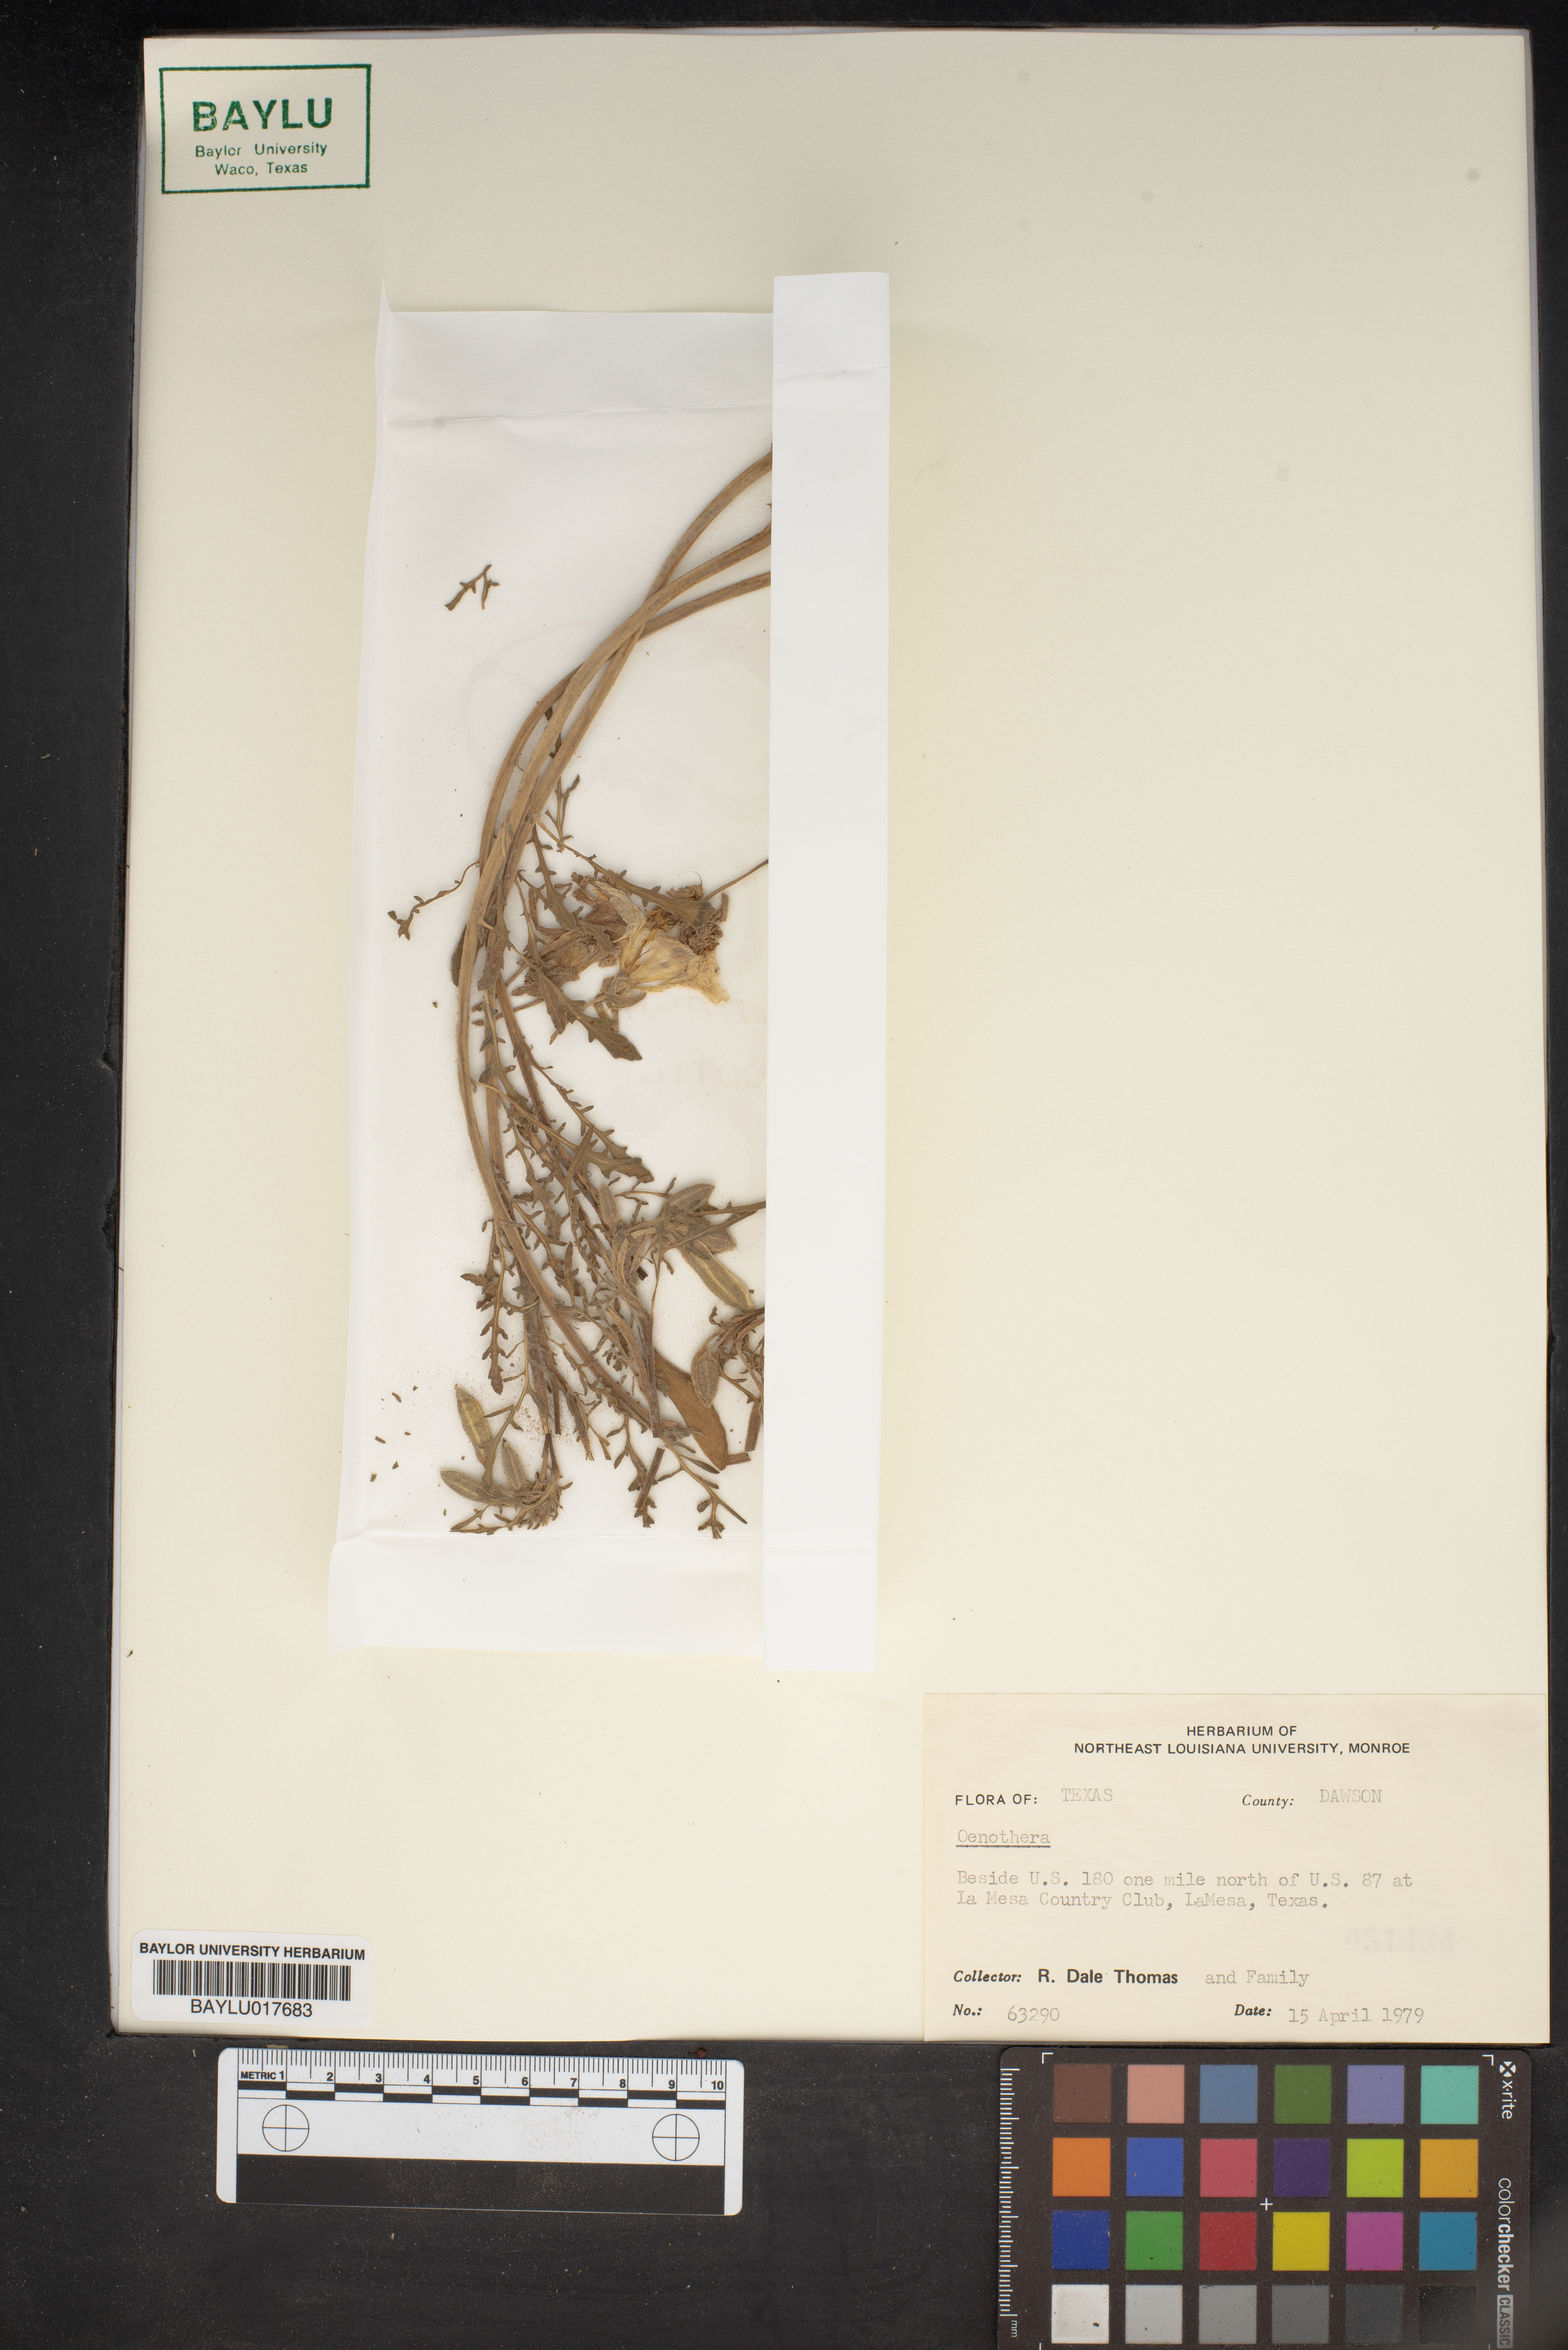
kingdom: Plantae
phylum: Tracheophyta
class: Magnoliopsida
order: Myrtales
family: Onagraceae
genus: Oenothera
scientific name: Oenothera
